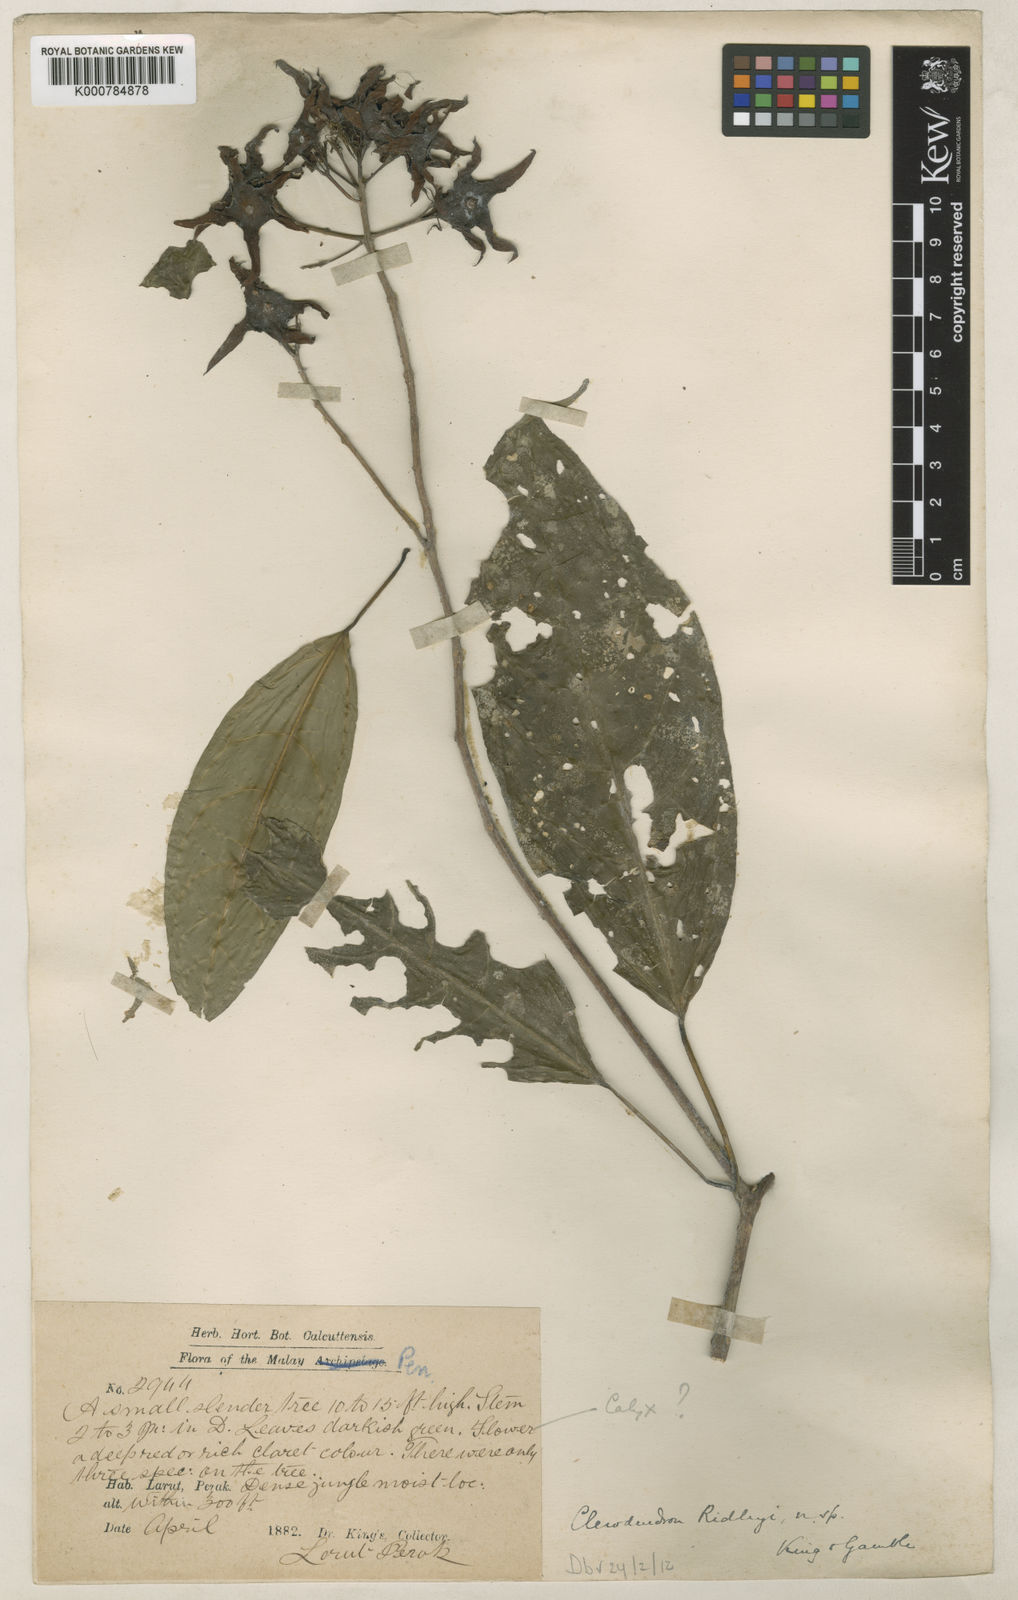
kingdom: Plantae
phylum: Tracheophyta
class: Magnoliopsida
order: Lamiales
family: Lamiaceae
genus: Clerodendrum
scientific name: Clerodendrum ridleyi
